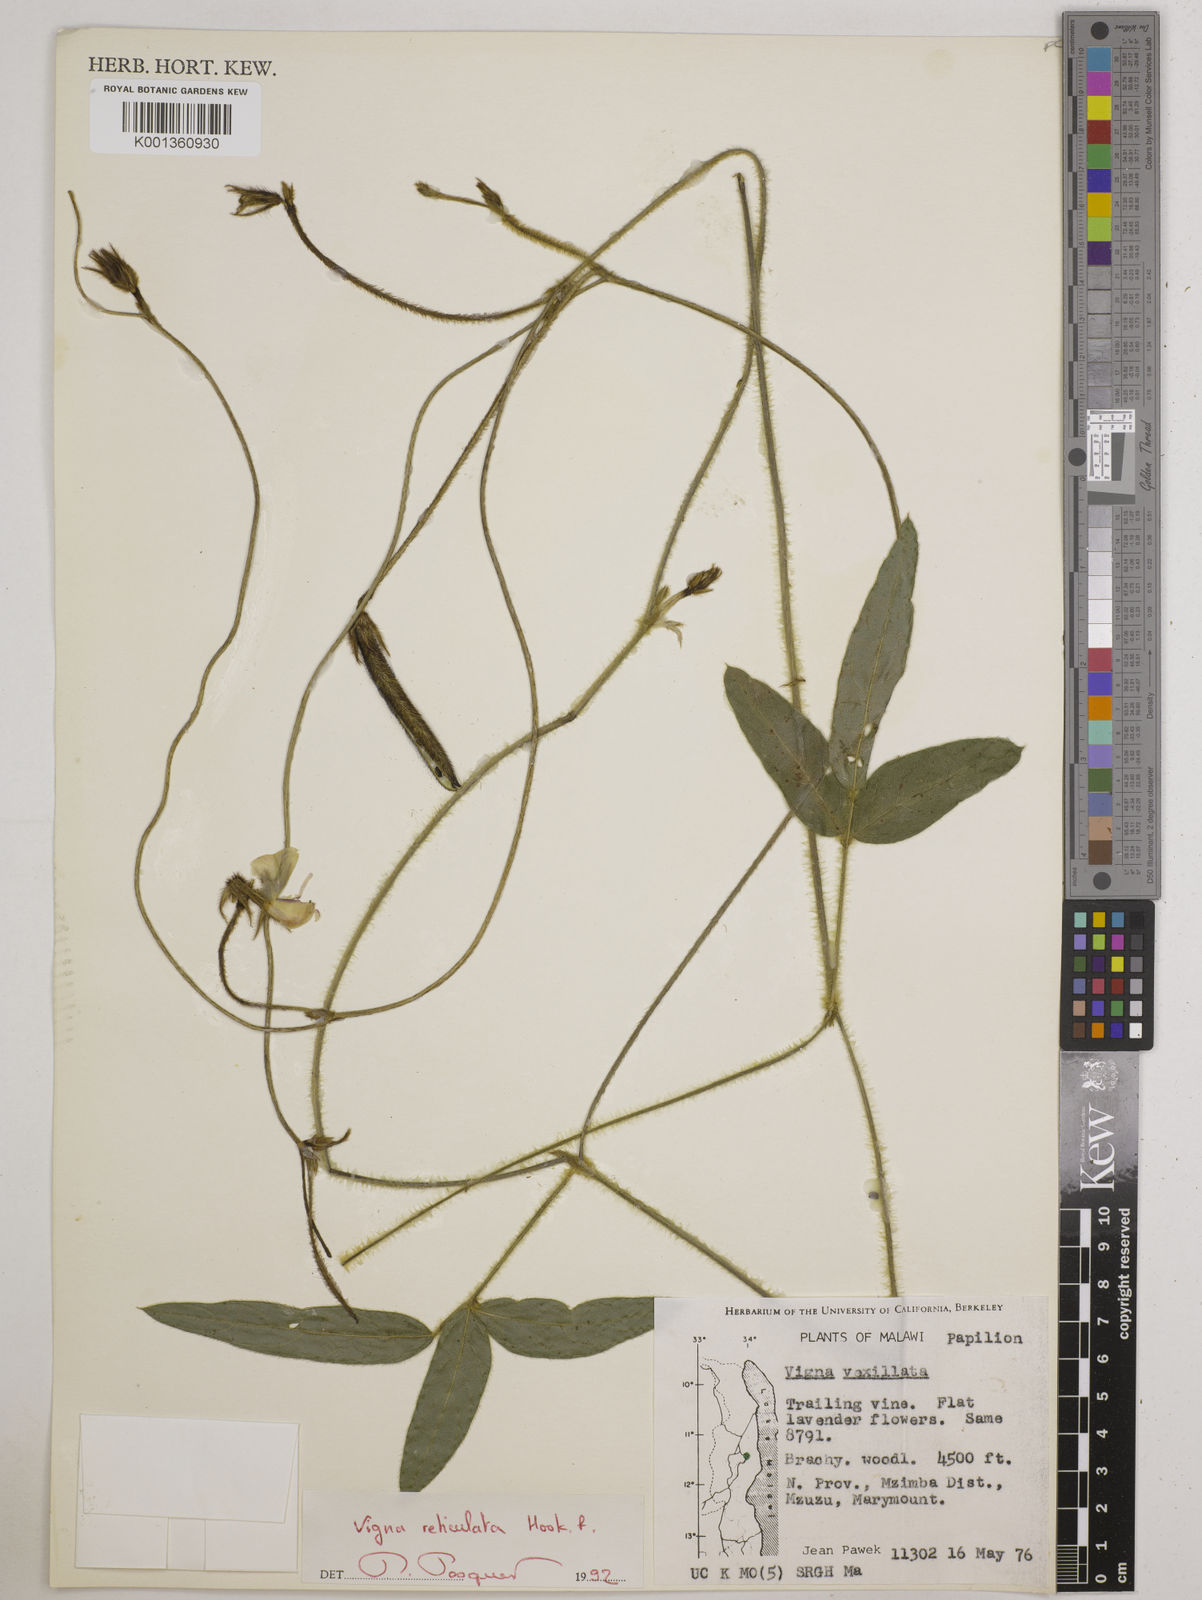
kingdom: Plantae
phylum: Tracheophyta
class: Magnoliopsida
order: Fabales
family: Fabaceae
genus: Vigna
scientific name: Vigna reticulata
